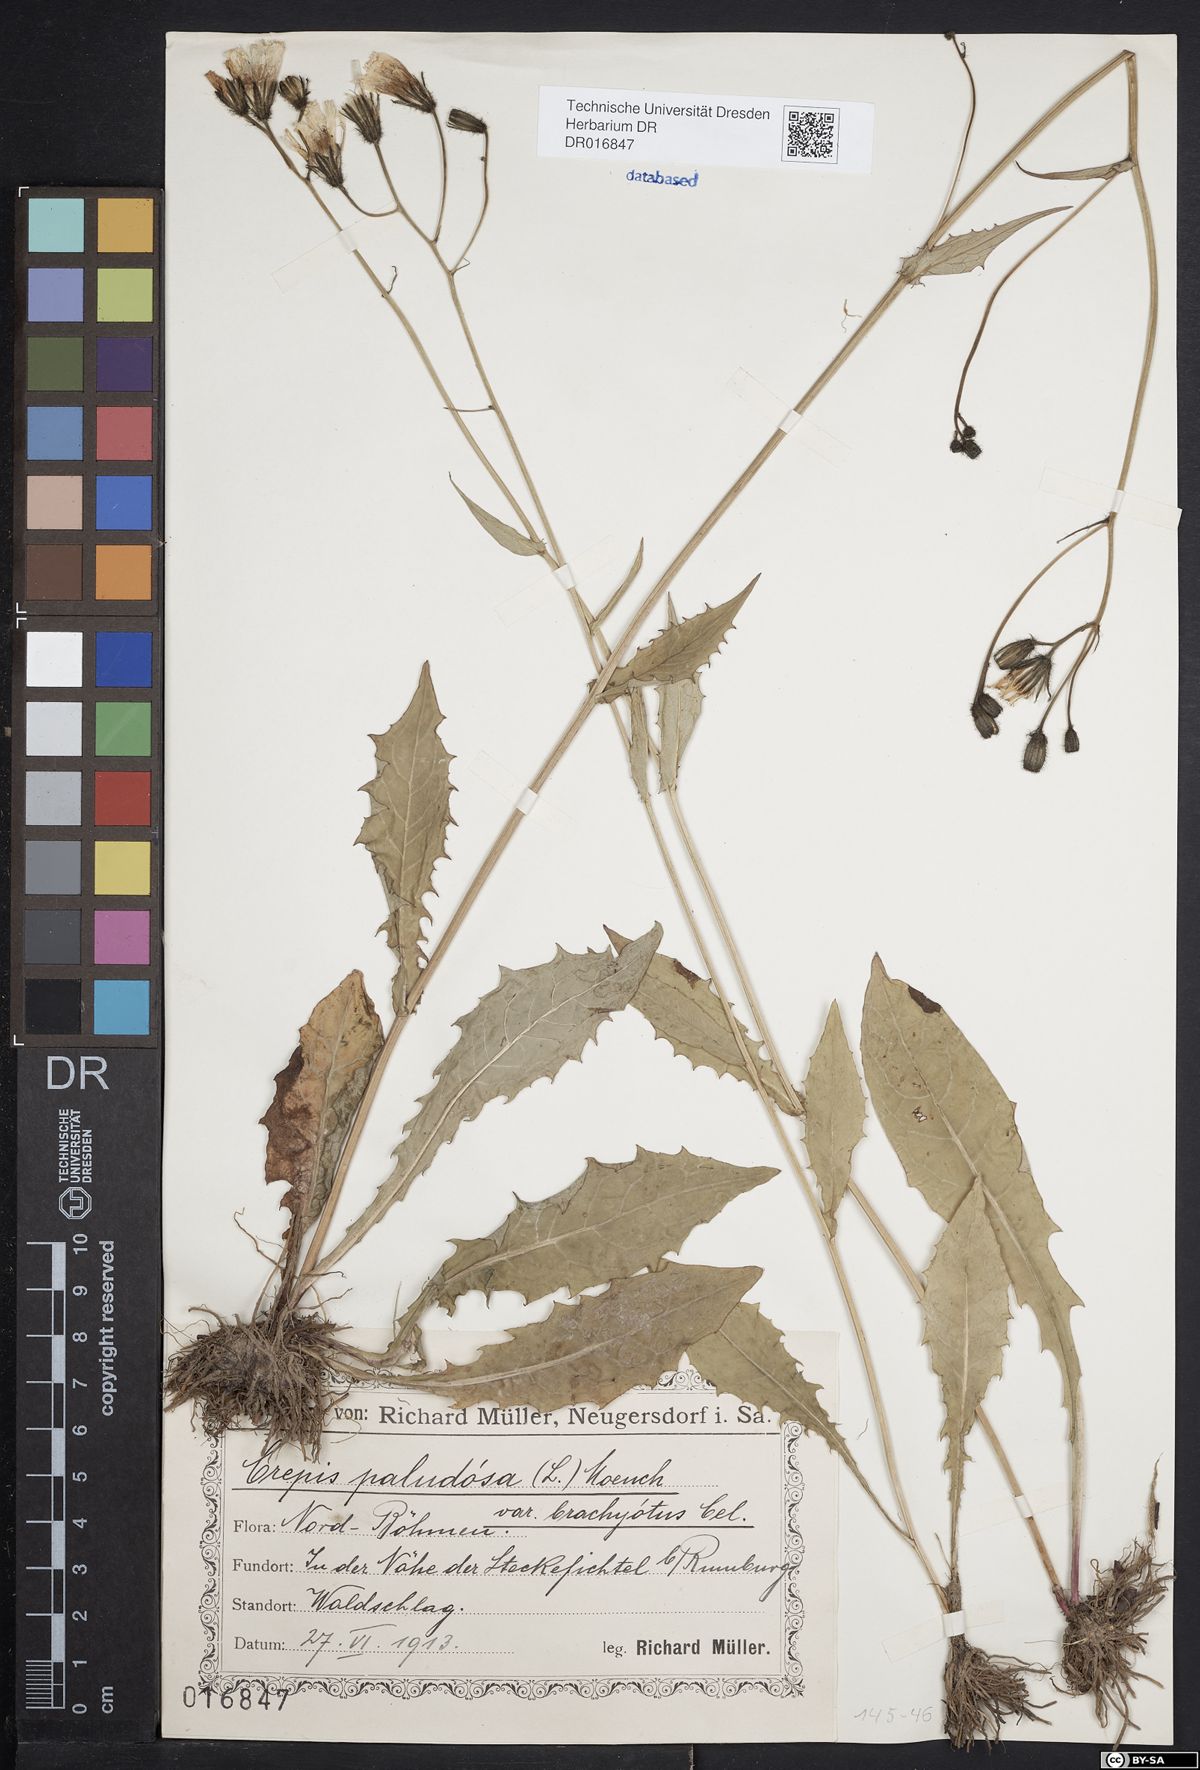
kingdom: Plantae
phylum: Tracheophyta
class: Magnoliopsida
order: Asterales
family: Asteraceae
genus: Crepis
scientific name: Crepis paludosa
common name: Marsh hawk's-beard
